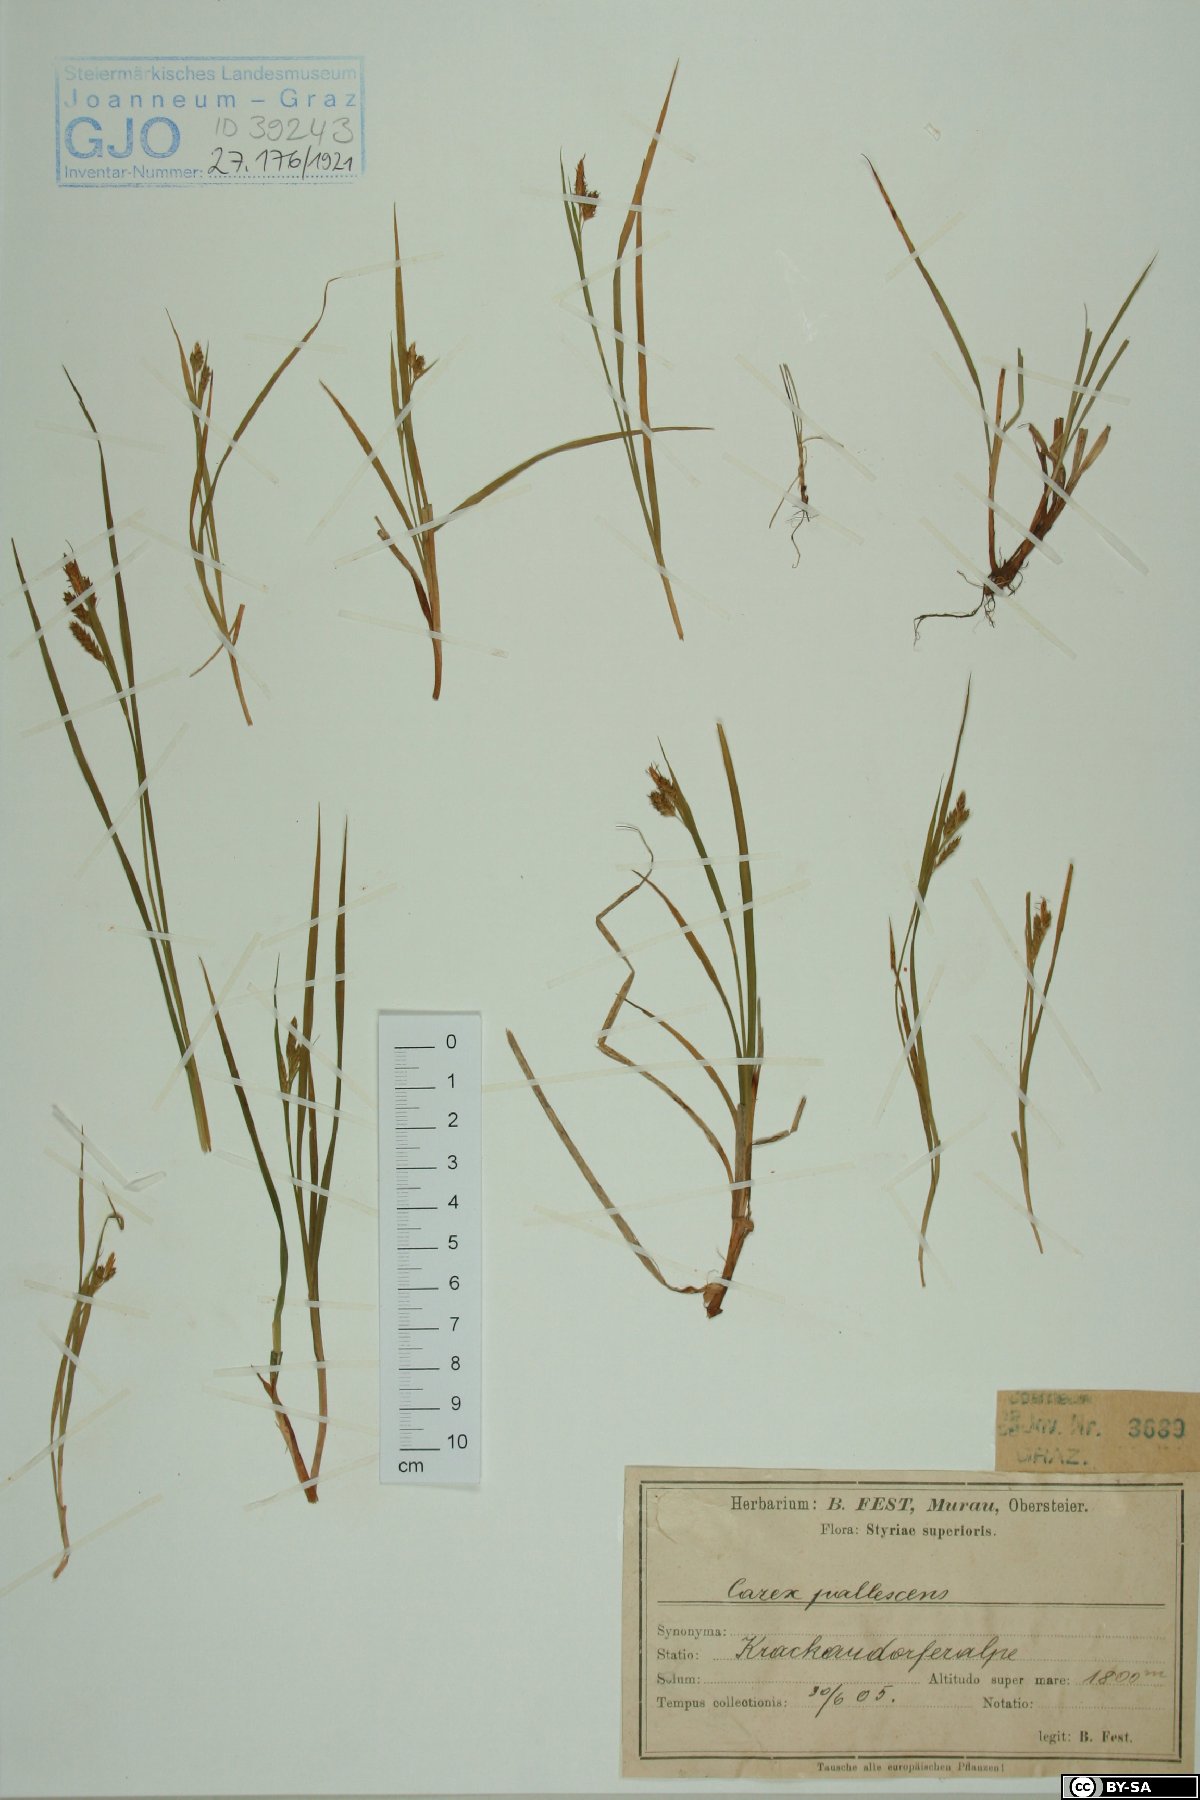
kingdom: Plantae
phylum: Tracheophyta
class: Liliopsida
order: Poales
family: Cyperaceae
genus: Carex
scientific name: Carex
